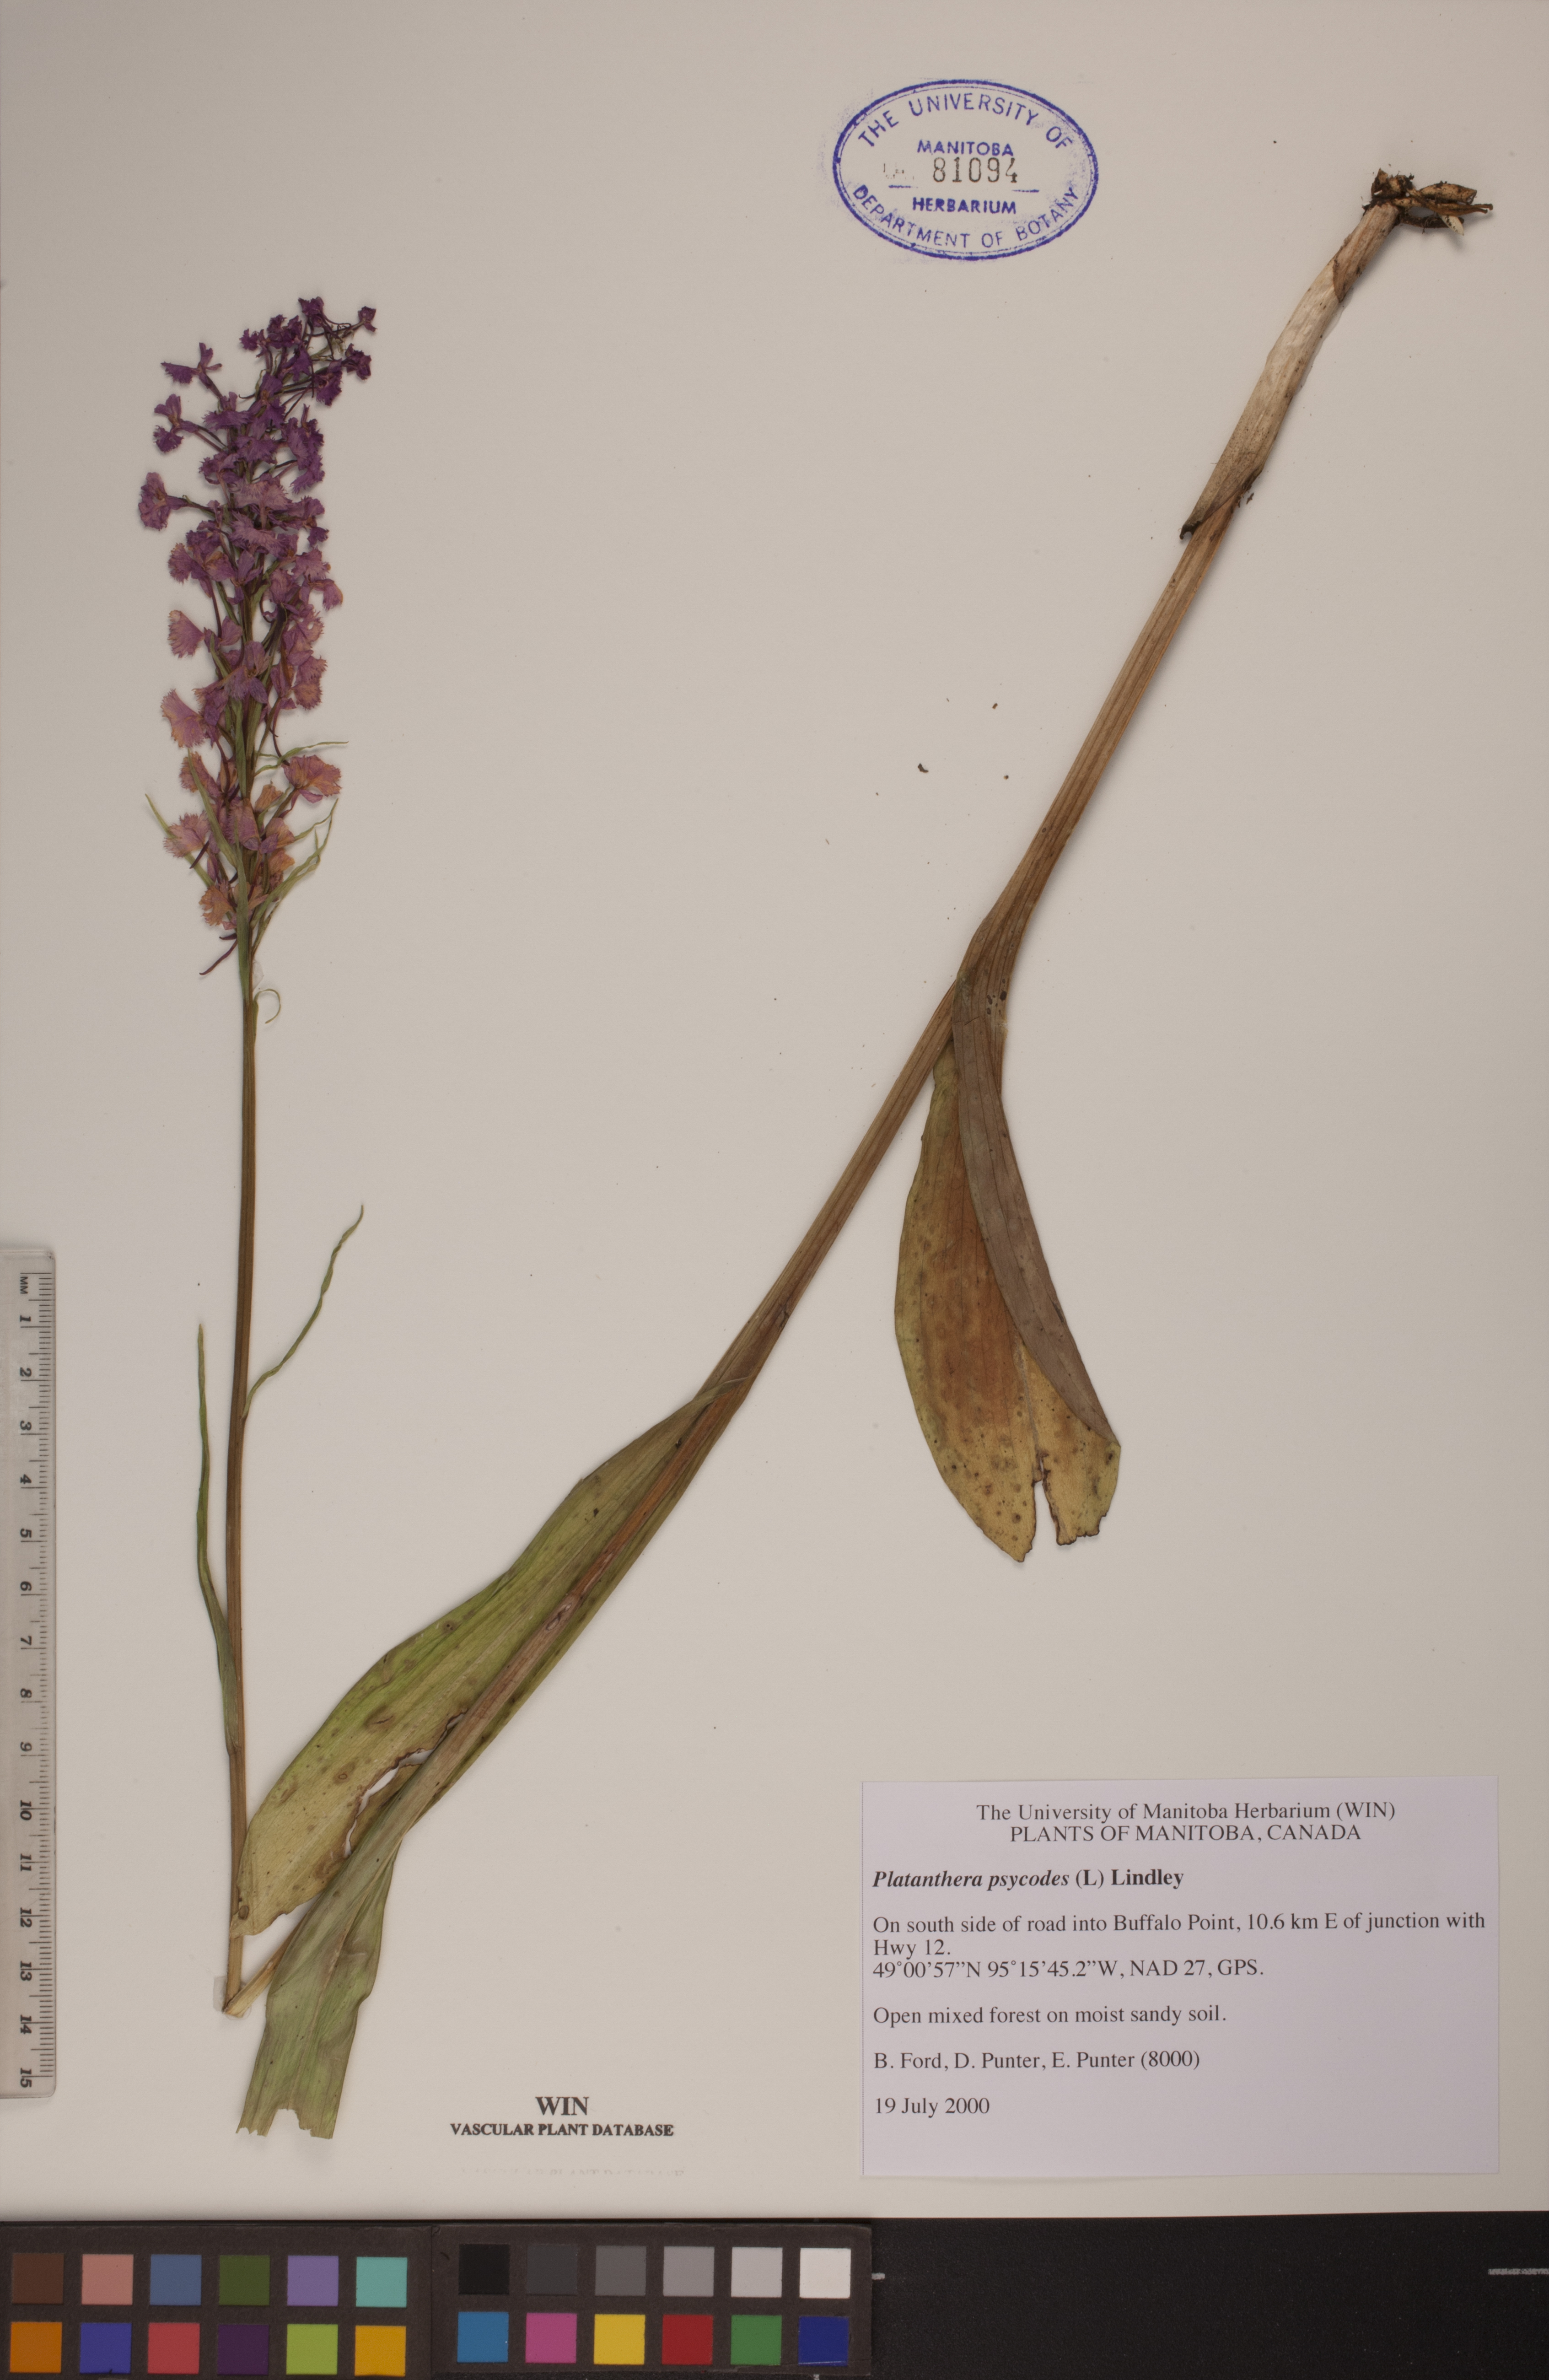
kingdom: Plantae
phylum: Tracheophyta
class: Liliopsida
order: Asparagales
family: Orchidaceae
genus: Platanthera
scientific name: Platanthera psycodes
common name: Lesser purple fringed orchid
